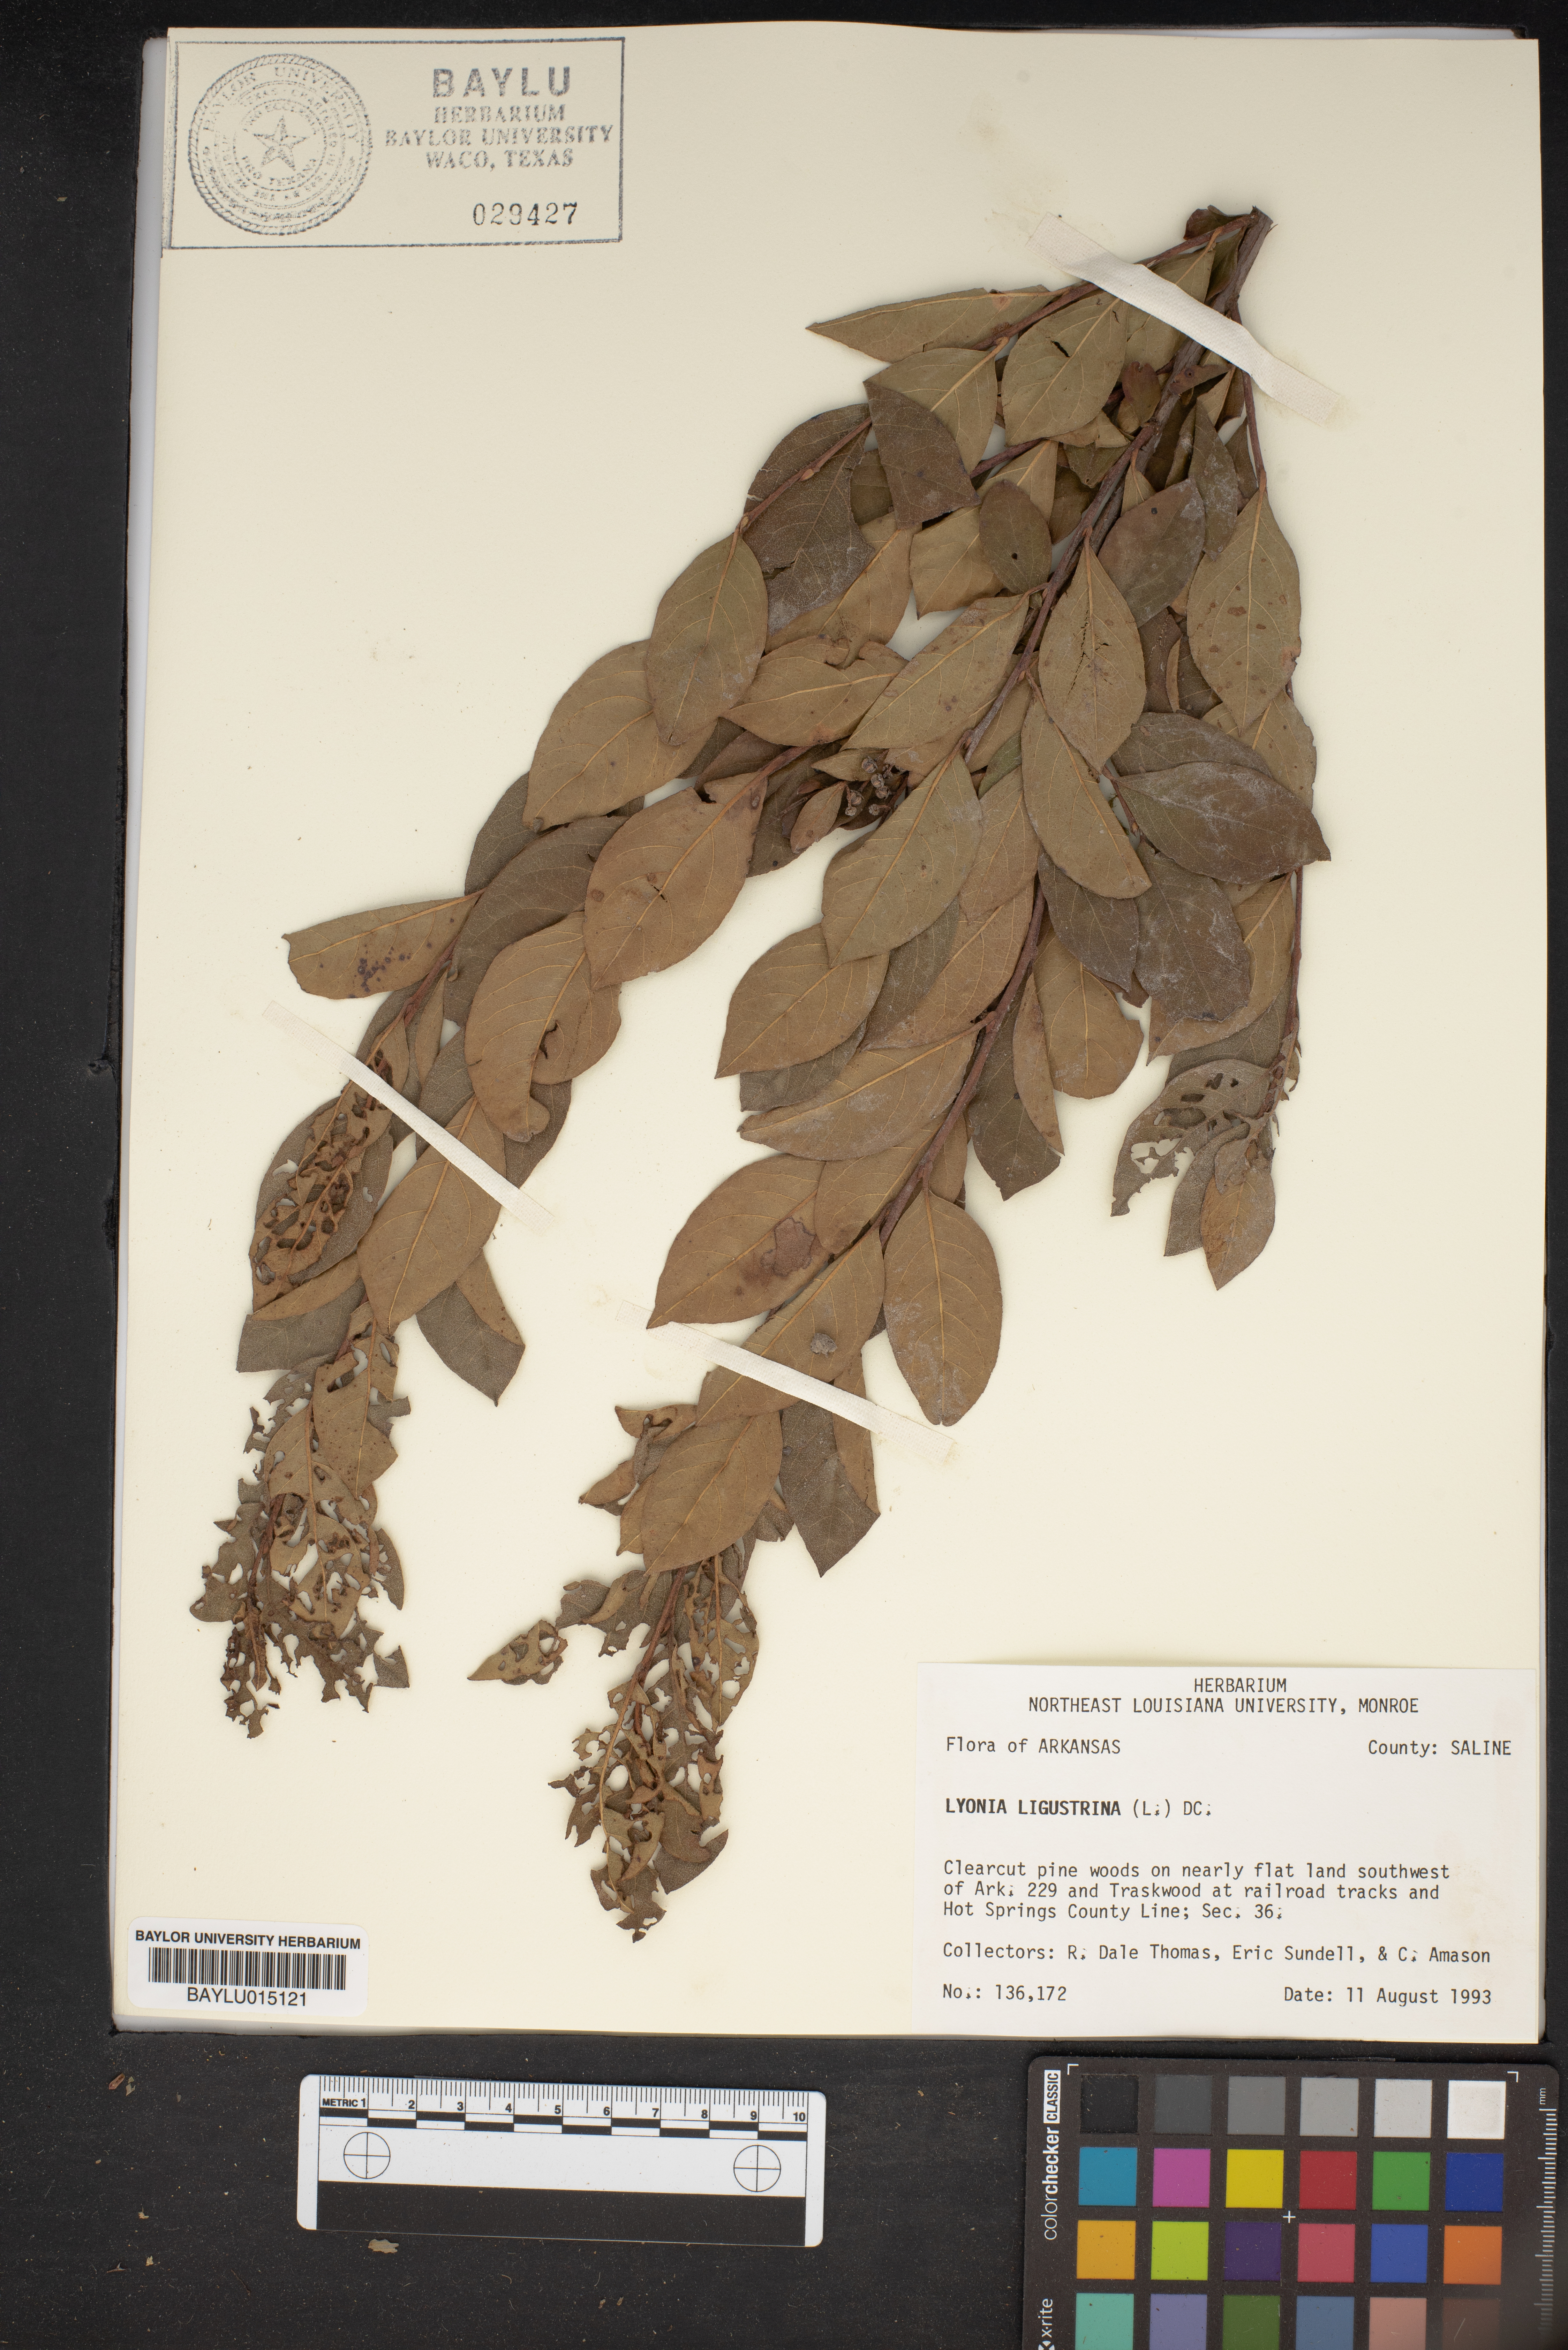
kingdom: Plantae
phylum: Tracheophyta
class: Magnoliopsida
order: Ericales
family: Ericaceae
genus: Lyonia
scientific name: Lyonia ligustrina
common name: Maleberry
